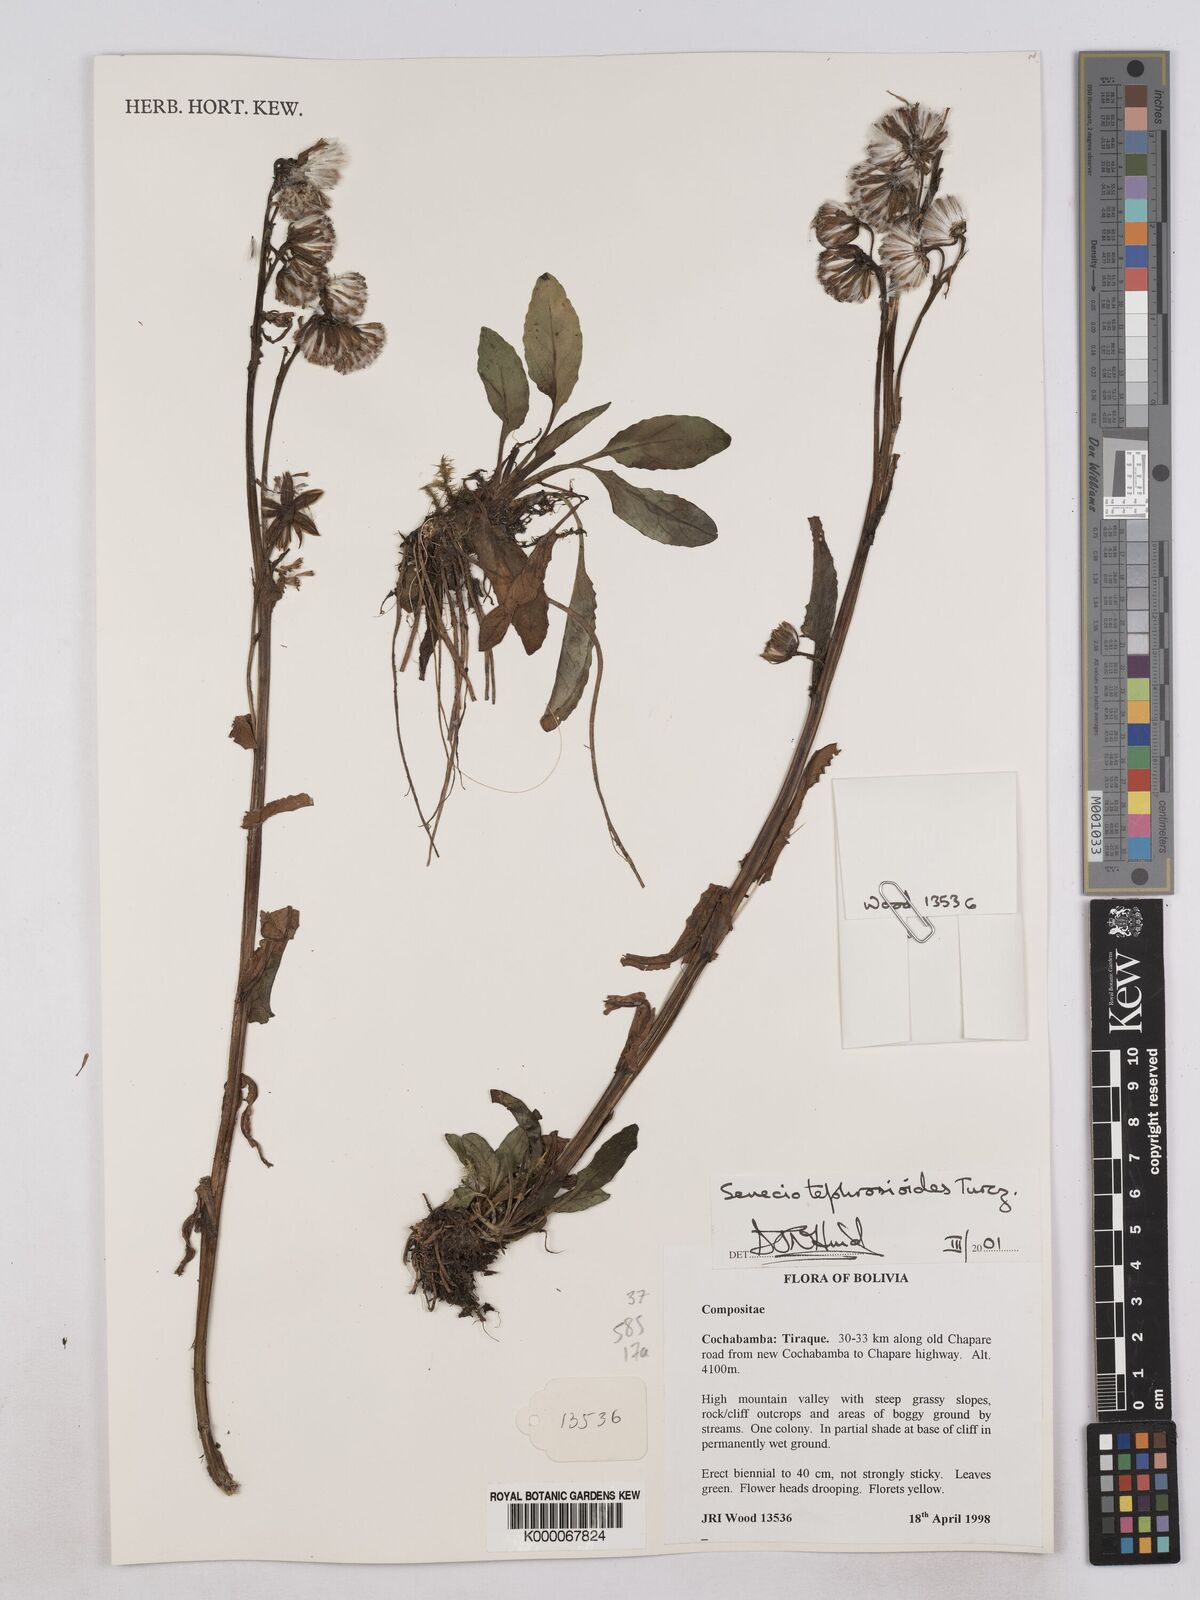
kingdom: Plantae
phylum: Tracheophyta
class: Magnoliopsida
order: Asterales
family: Asteraceae
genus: Senecio
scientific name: Senecio tephrosioides
